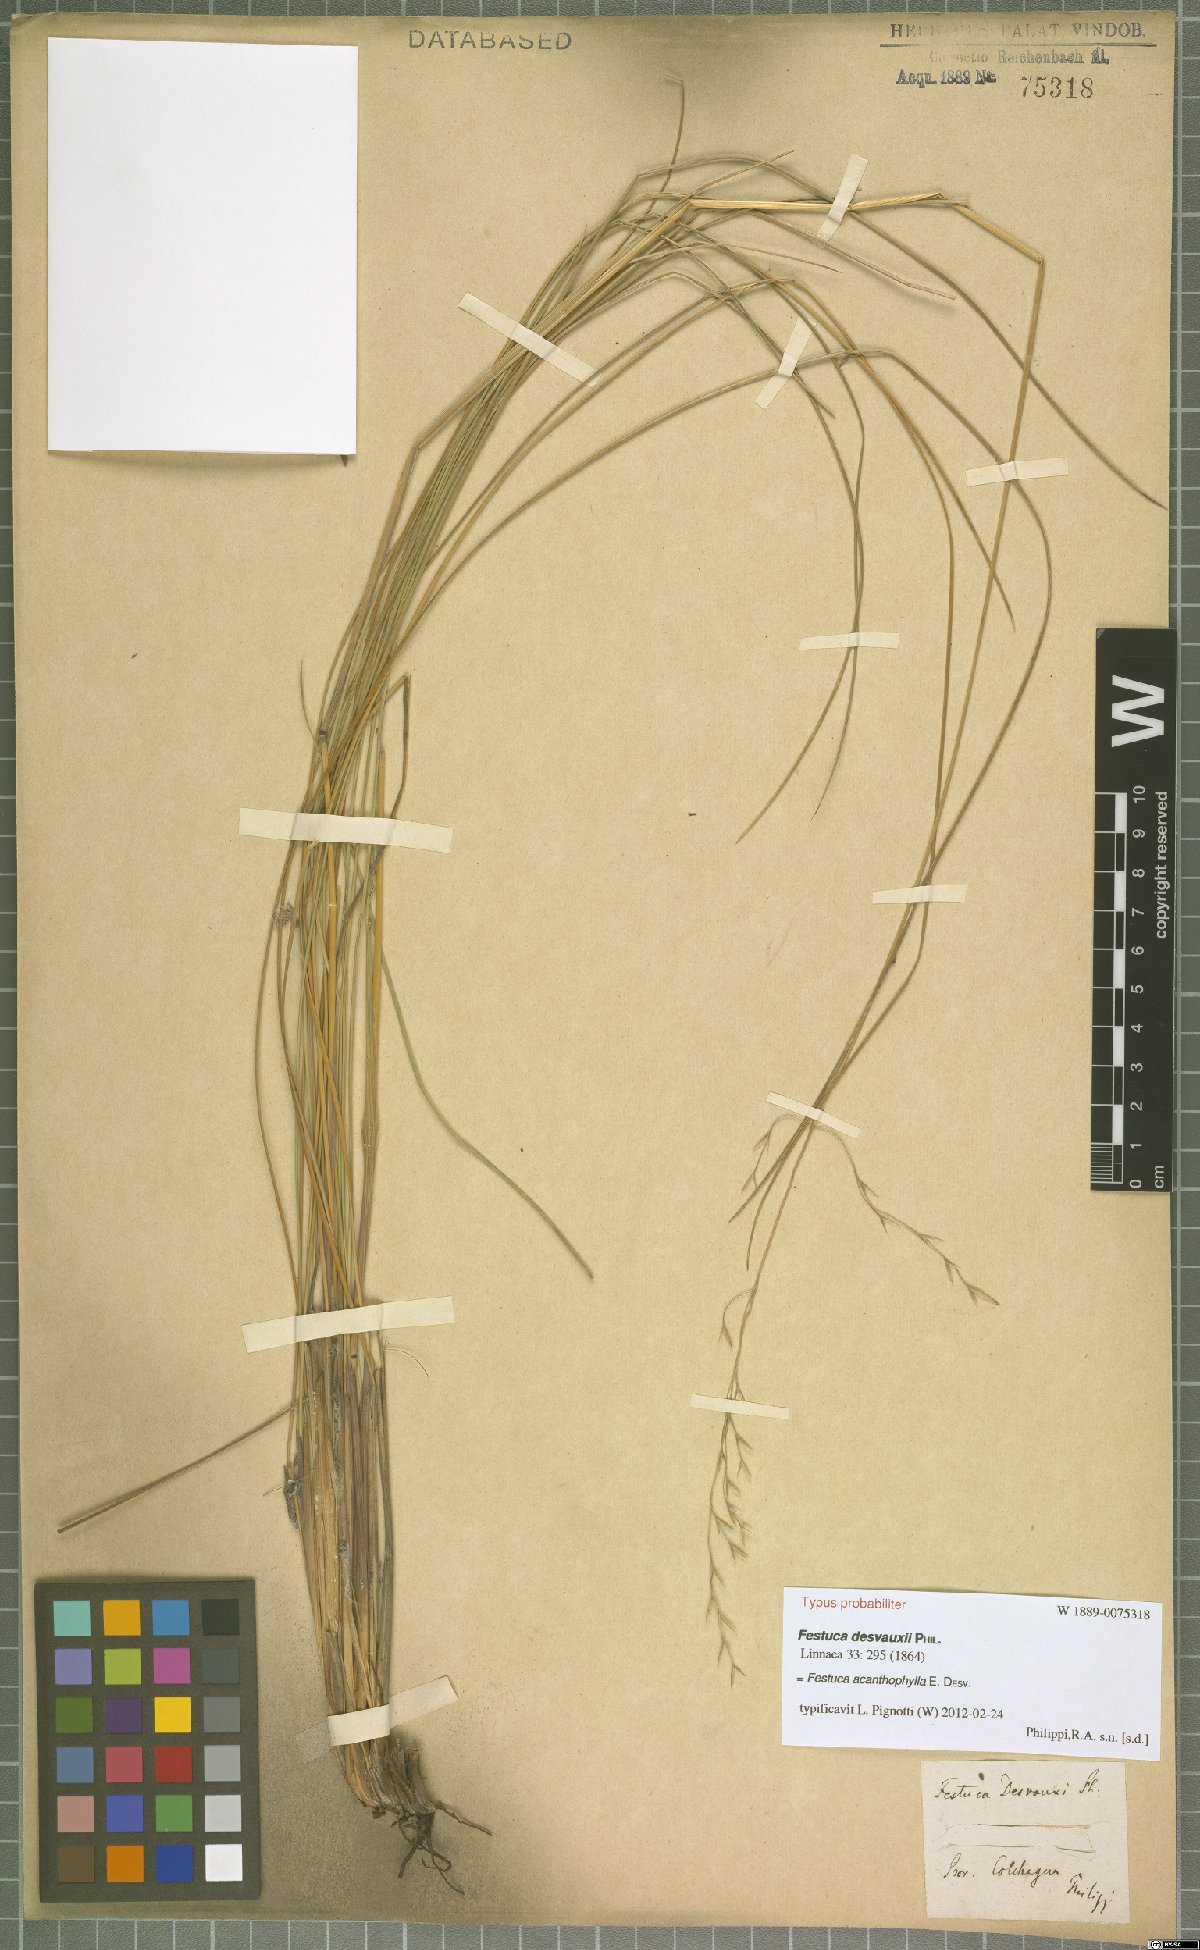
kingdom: Plantae
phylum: Tracheophyta
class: Liliopsida
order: Poales
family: Poaceae
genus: Festuca
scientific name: Festuca acanthophylla
